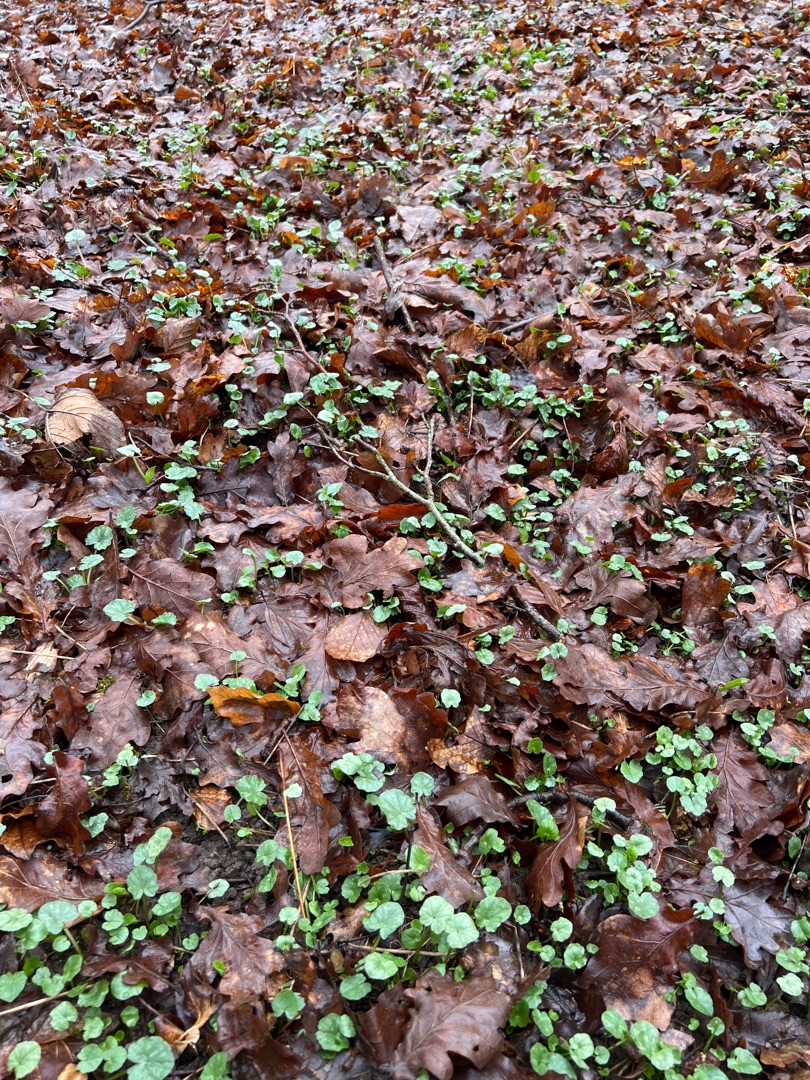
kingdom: Plantae
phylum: Tracheophyta
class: Magnoliopsida
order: Ranunculales
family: Ranunculaceae
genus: Ficaria
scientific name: Ficaria verna
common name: Vorterod
